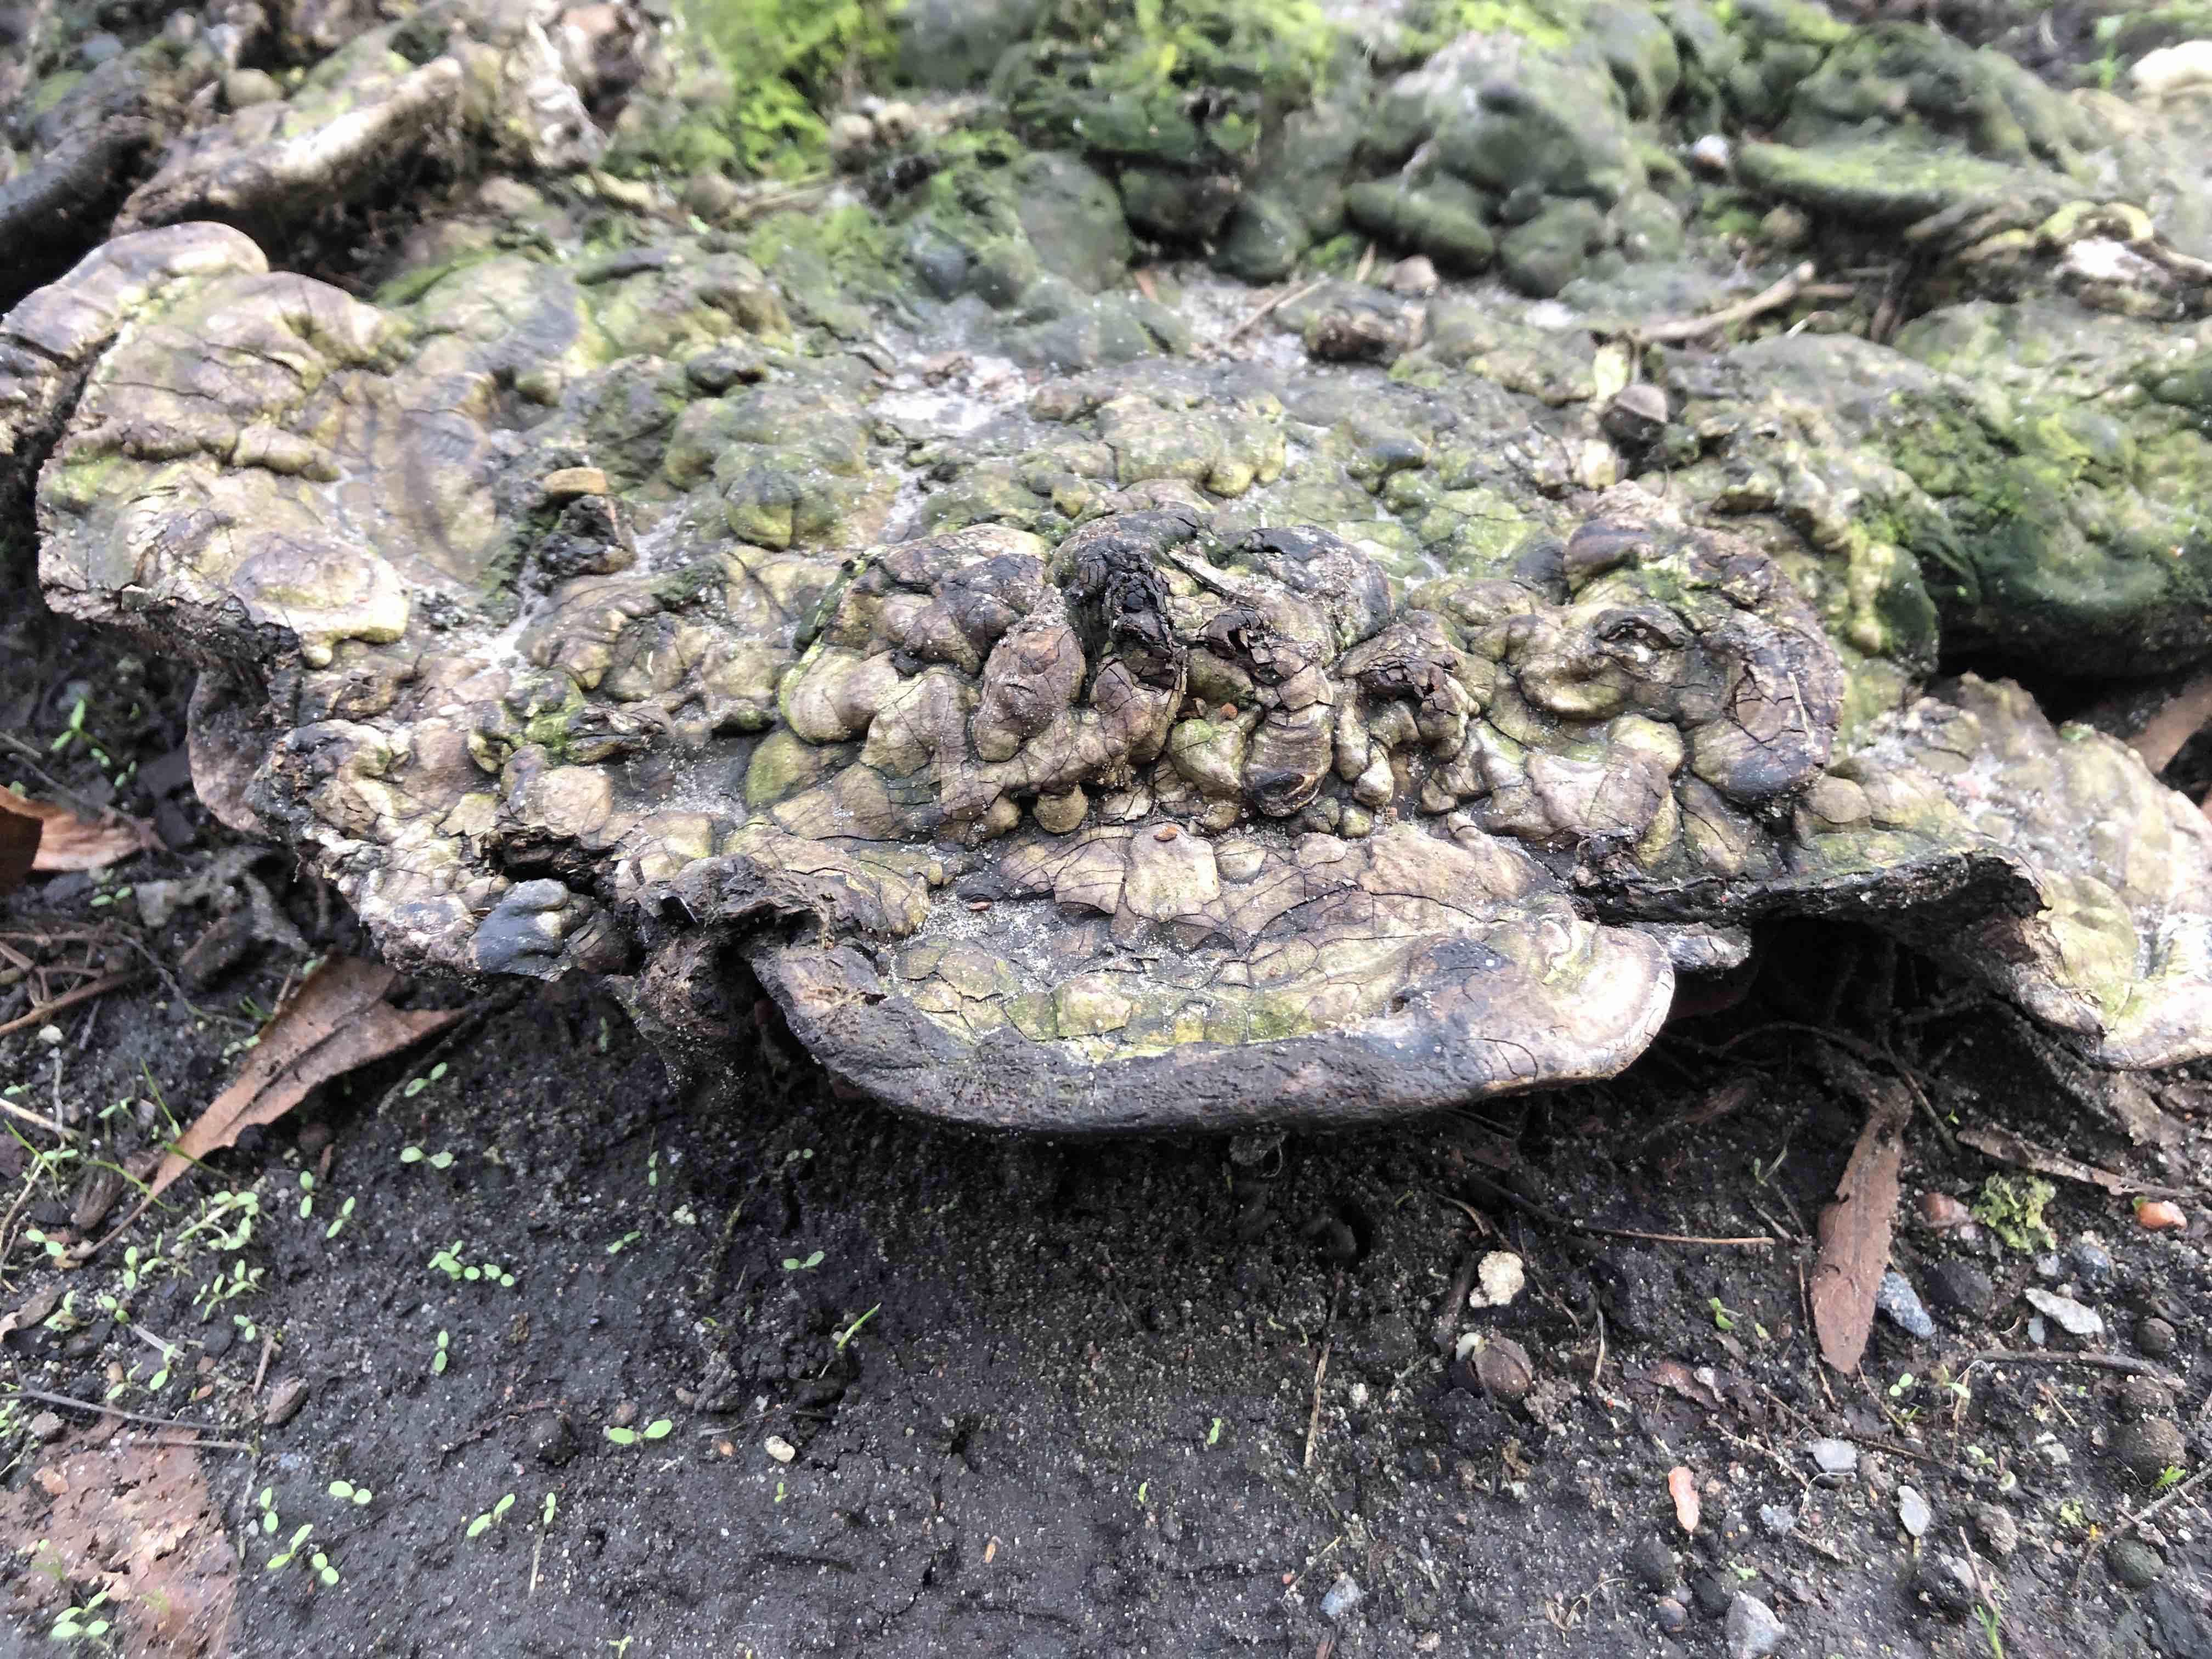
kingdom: Fungi
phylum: Basidiomycota
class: Agaricomycetes
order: Polyporales
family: Polyporaceae
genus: Ganoderma
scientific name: Ganoderma applanatum
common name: flad lakporesvamp
